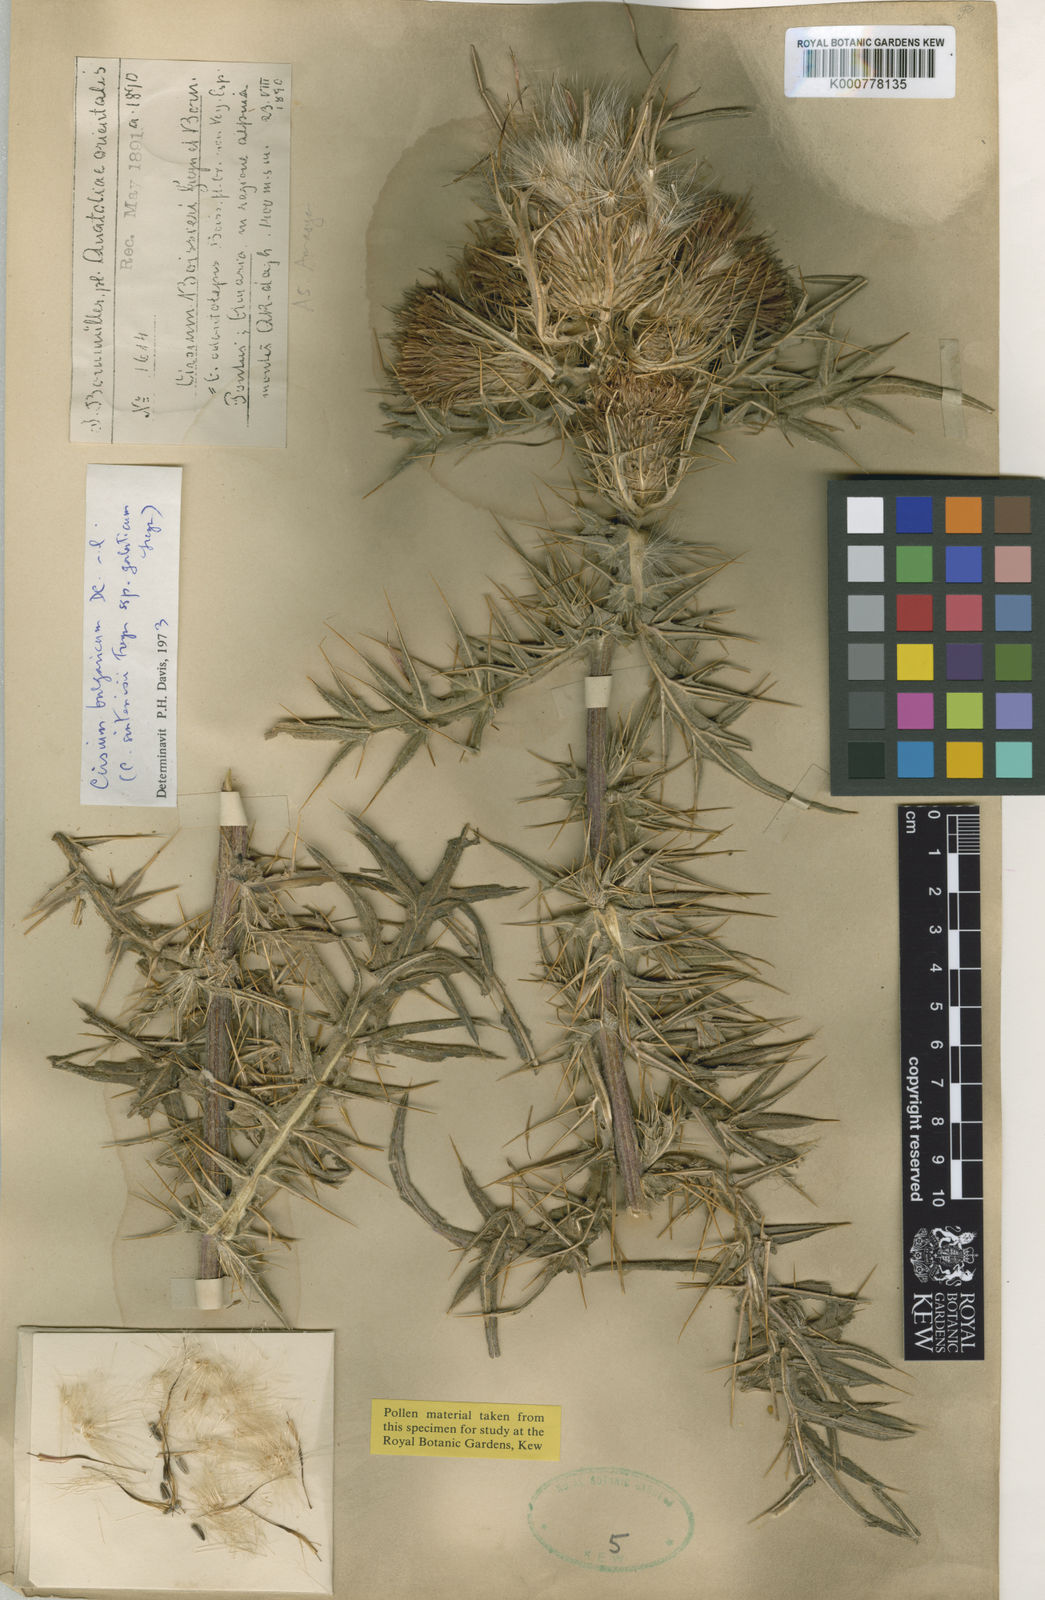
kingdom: Plantae
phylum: Tracheophyta
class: Magnoliopsida
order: Asterales
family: Asteraceae
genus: Lophiolepis
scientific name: Lophiolepis bulgarica
